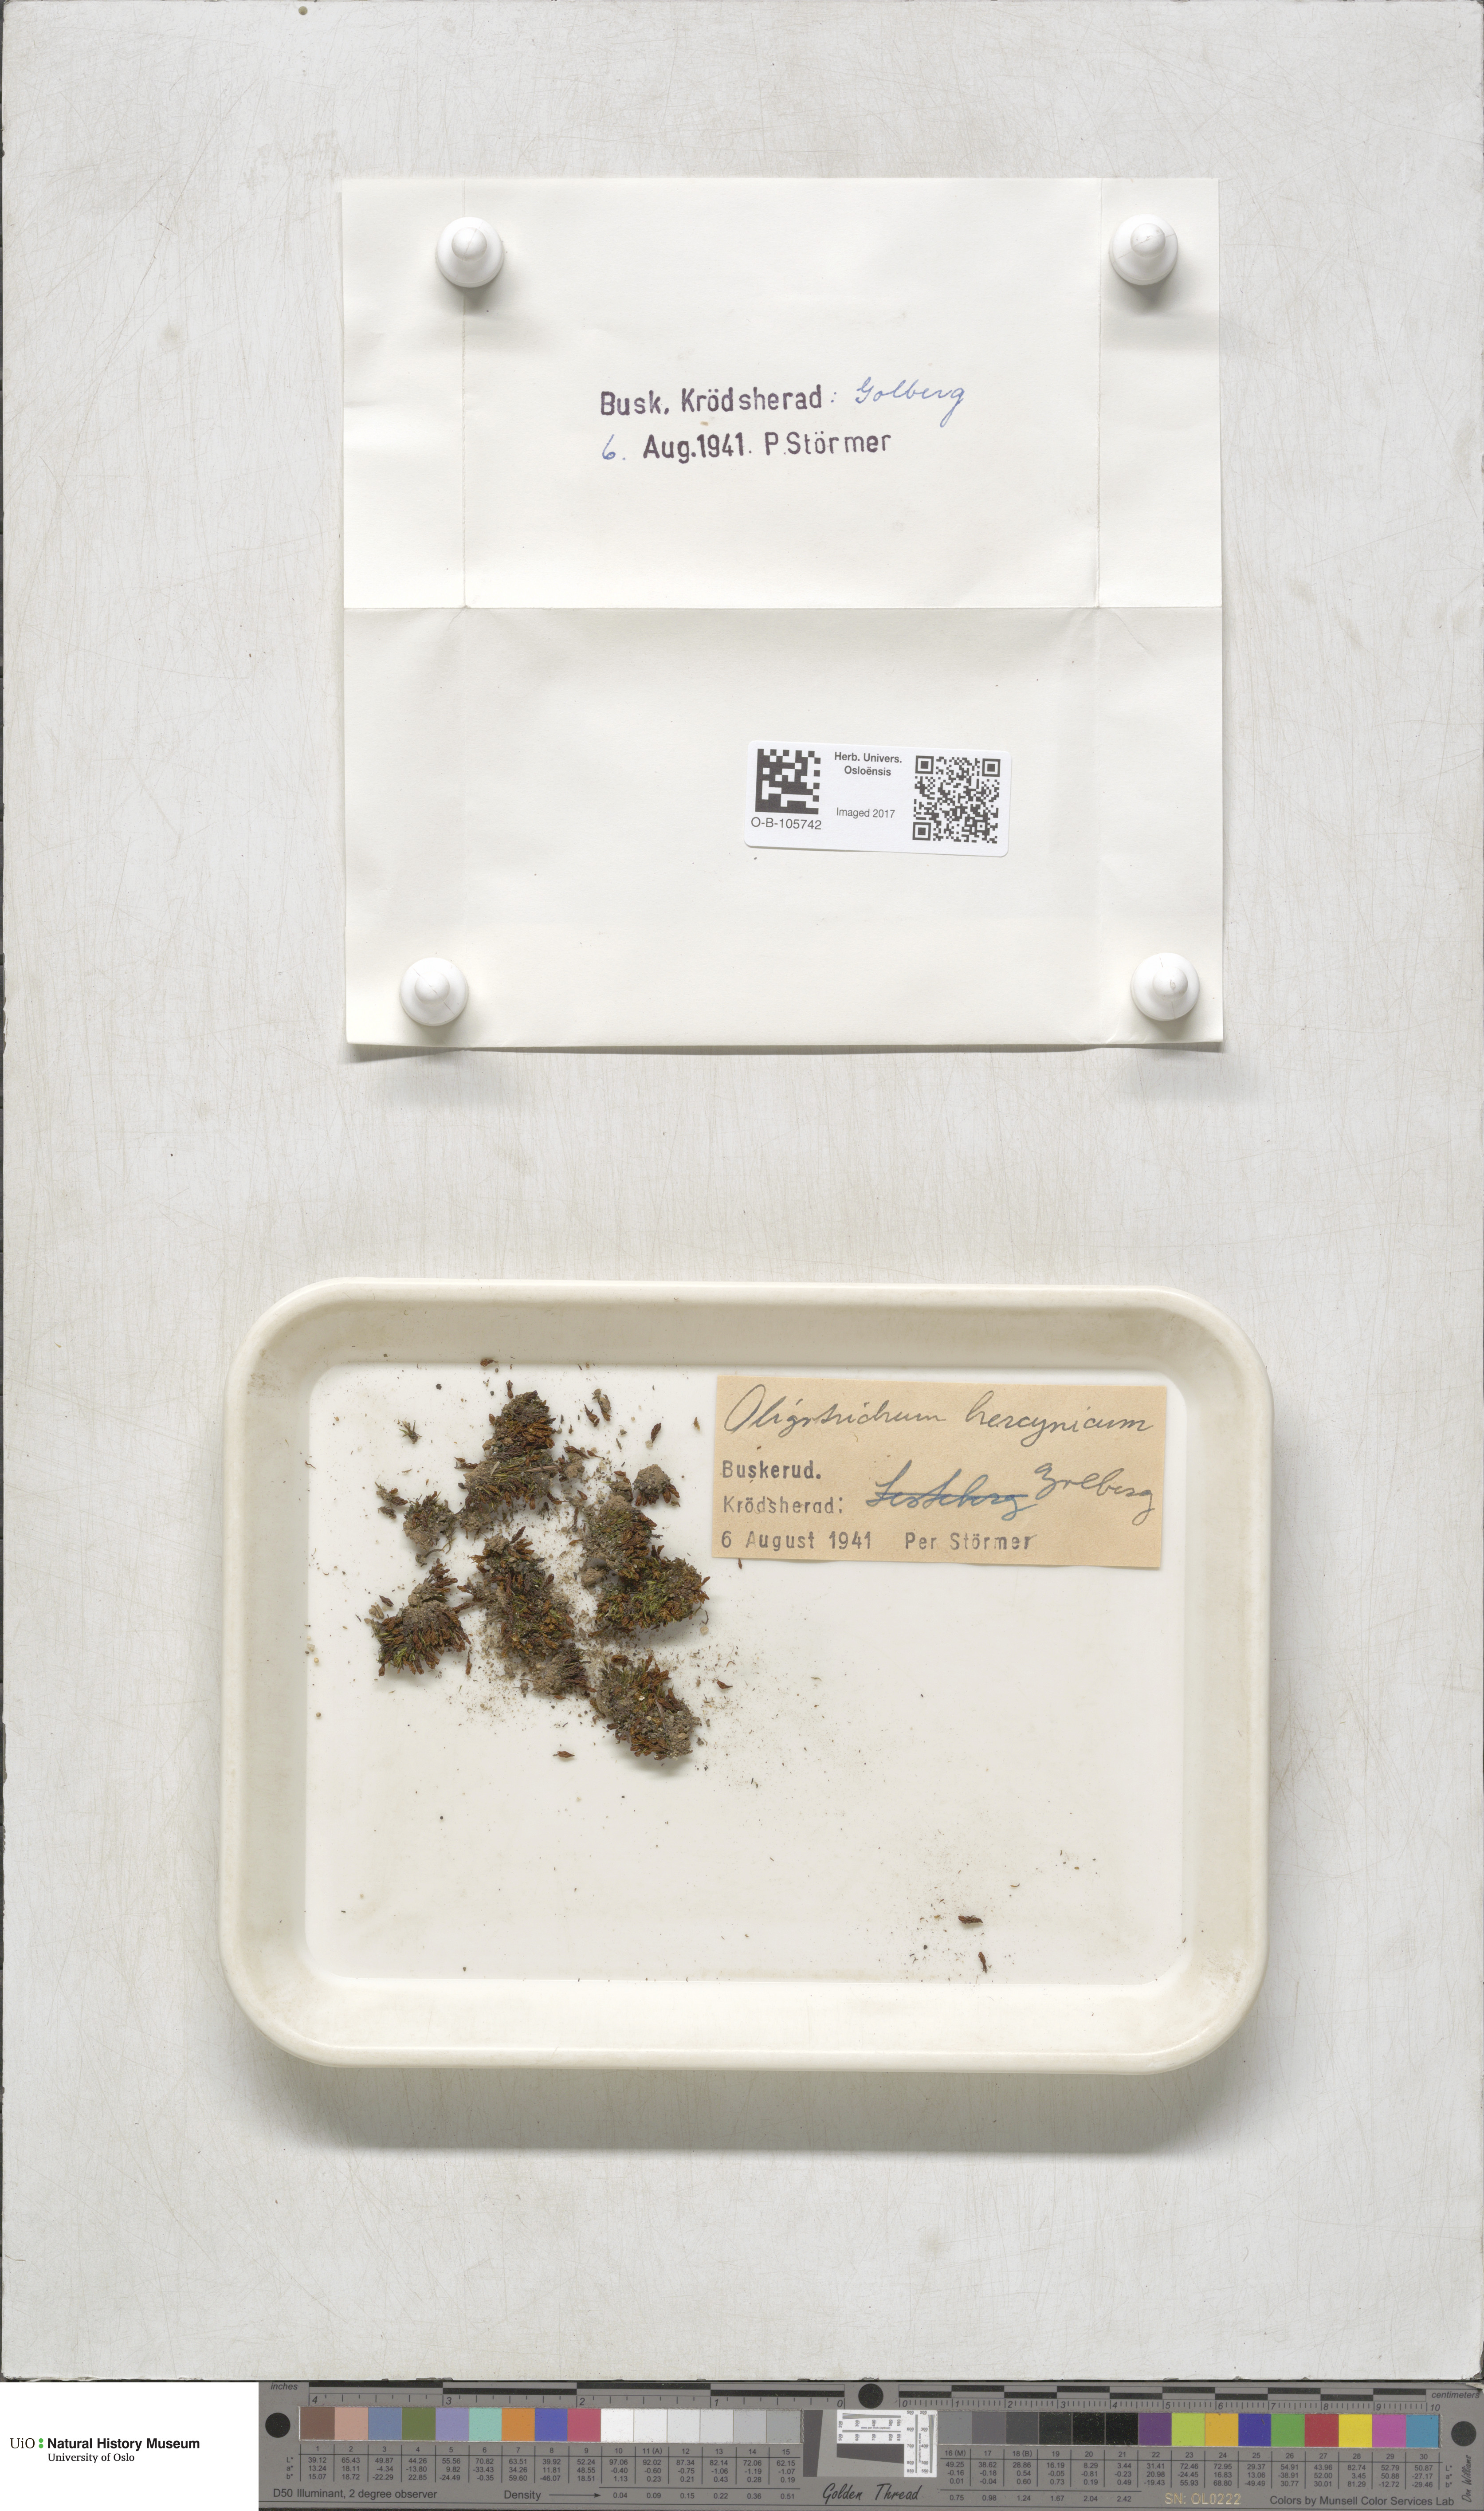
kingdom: Plantae
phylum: Bryophyta
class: Polytrichopsida
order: Polytrichales
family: Polytrichaceae
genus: Oligotrichum
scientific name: Oligotrichum hercynicum
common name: Hercynian hair moss
